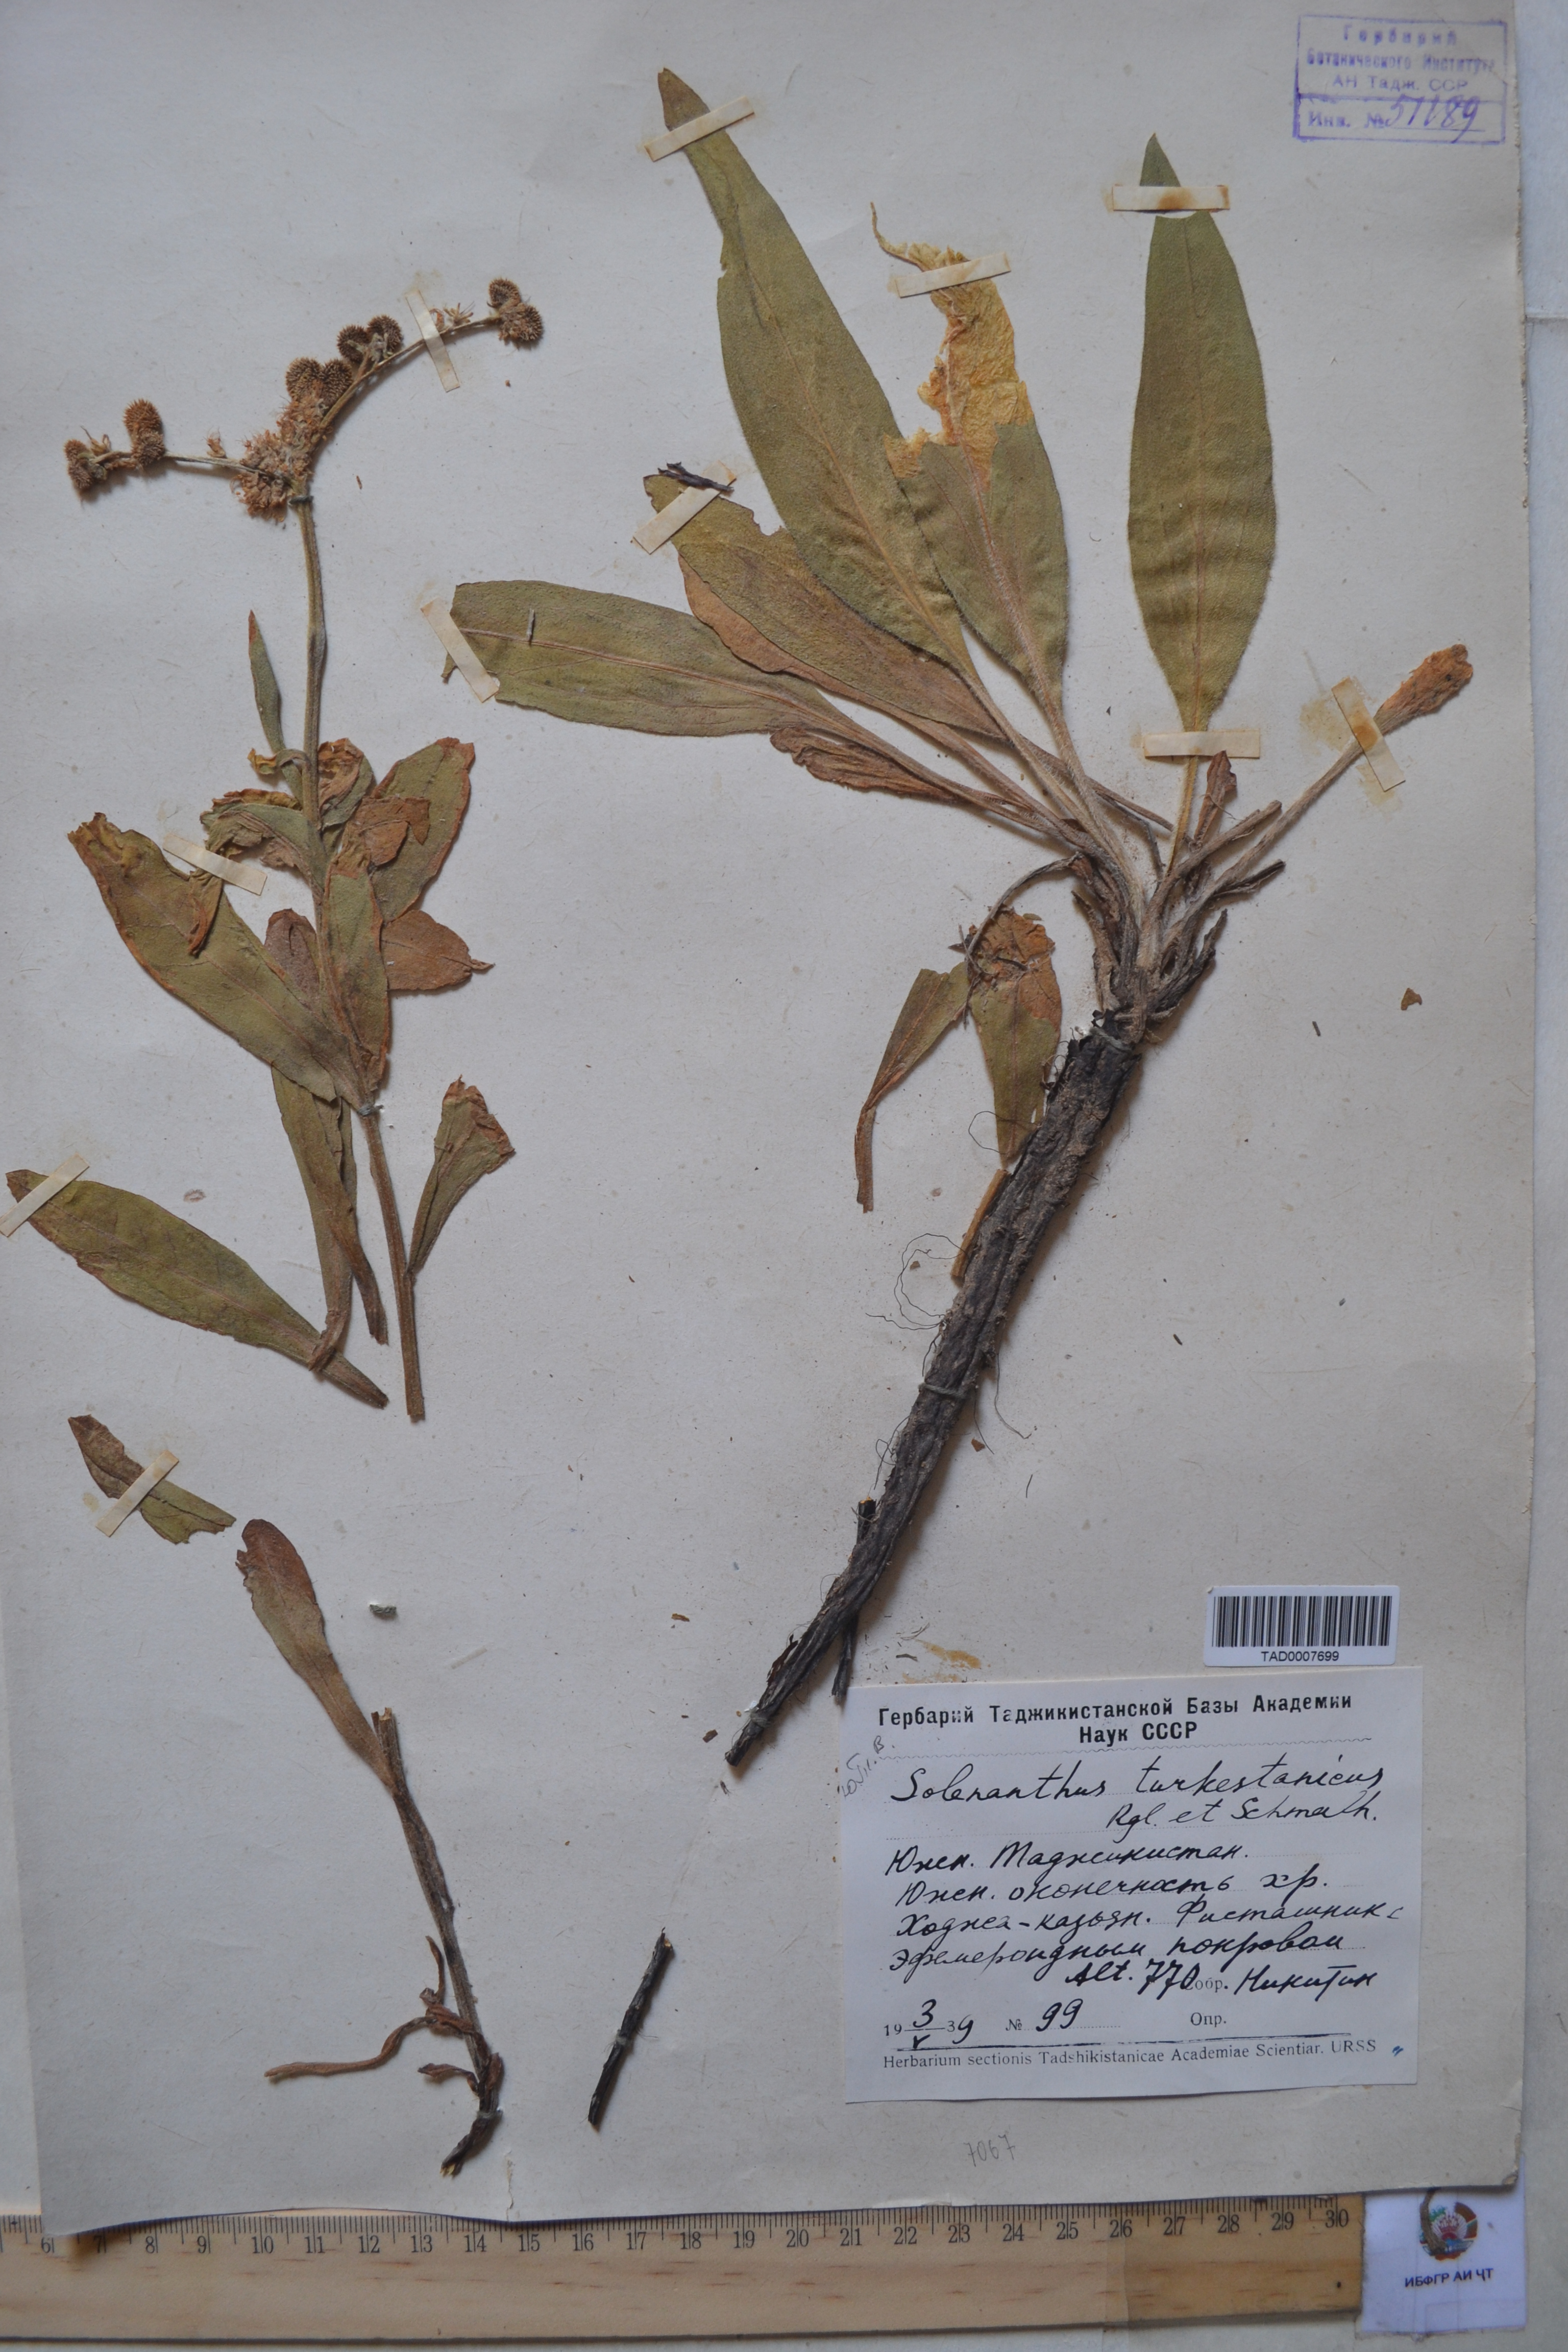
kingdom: Plantae
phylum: Tracheophyta
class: Magnoliopsida
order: Boraginales
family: Boraginaceae
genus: Solenanthus
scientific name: Solenanthus turkestanicus
